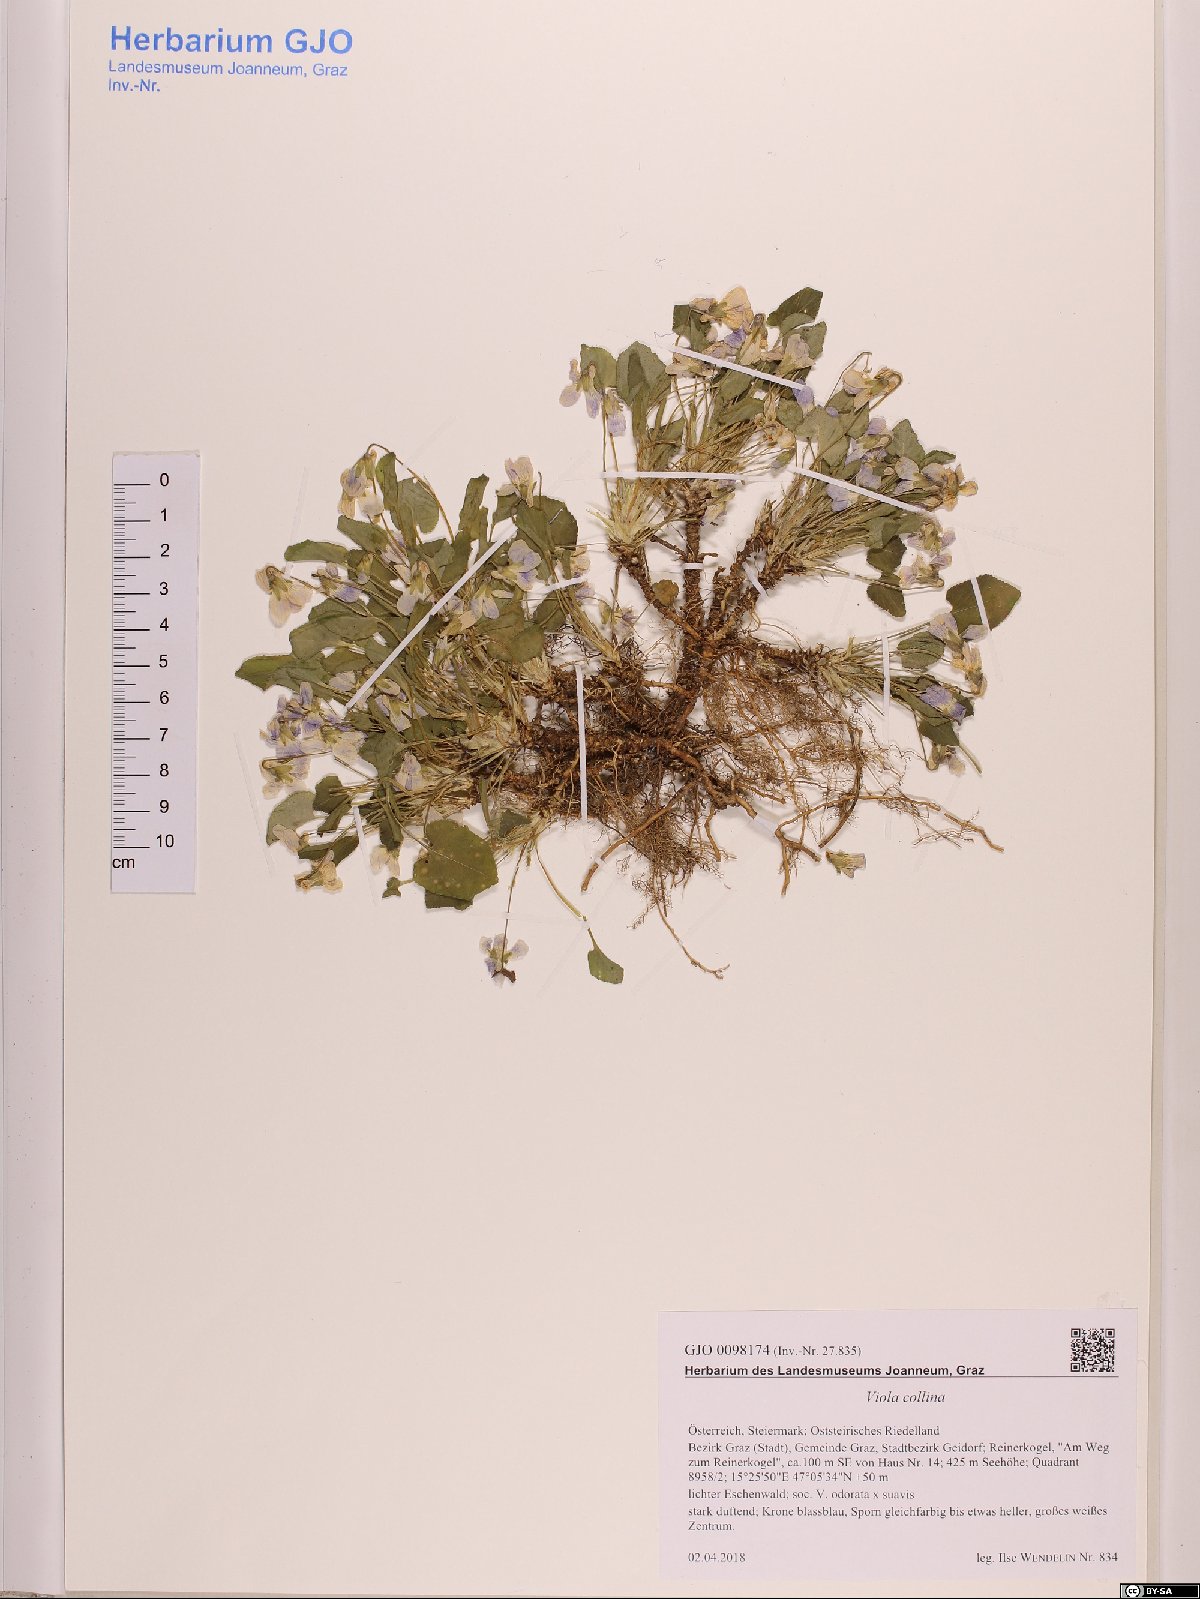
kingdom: Plantae
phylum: Tracheophyta
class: Magnoliopsida
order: Malpighiales
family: Violaceae
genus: Viola
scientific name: Viola collina
